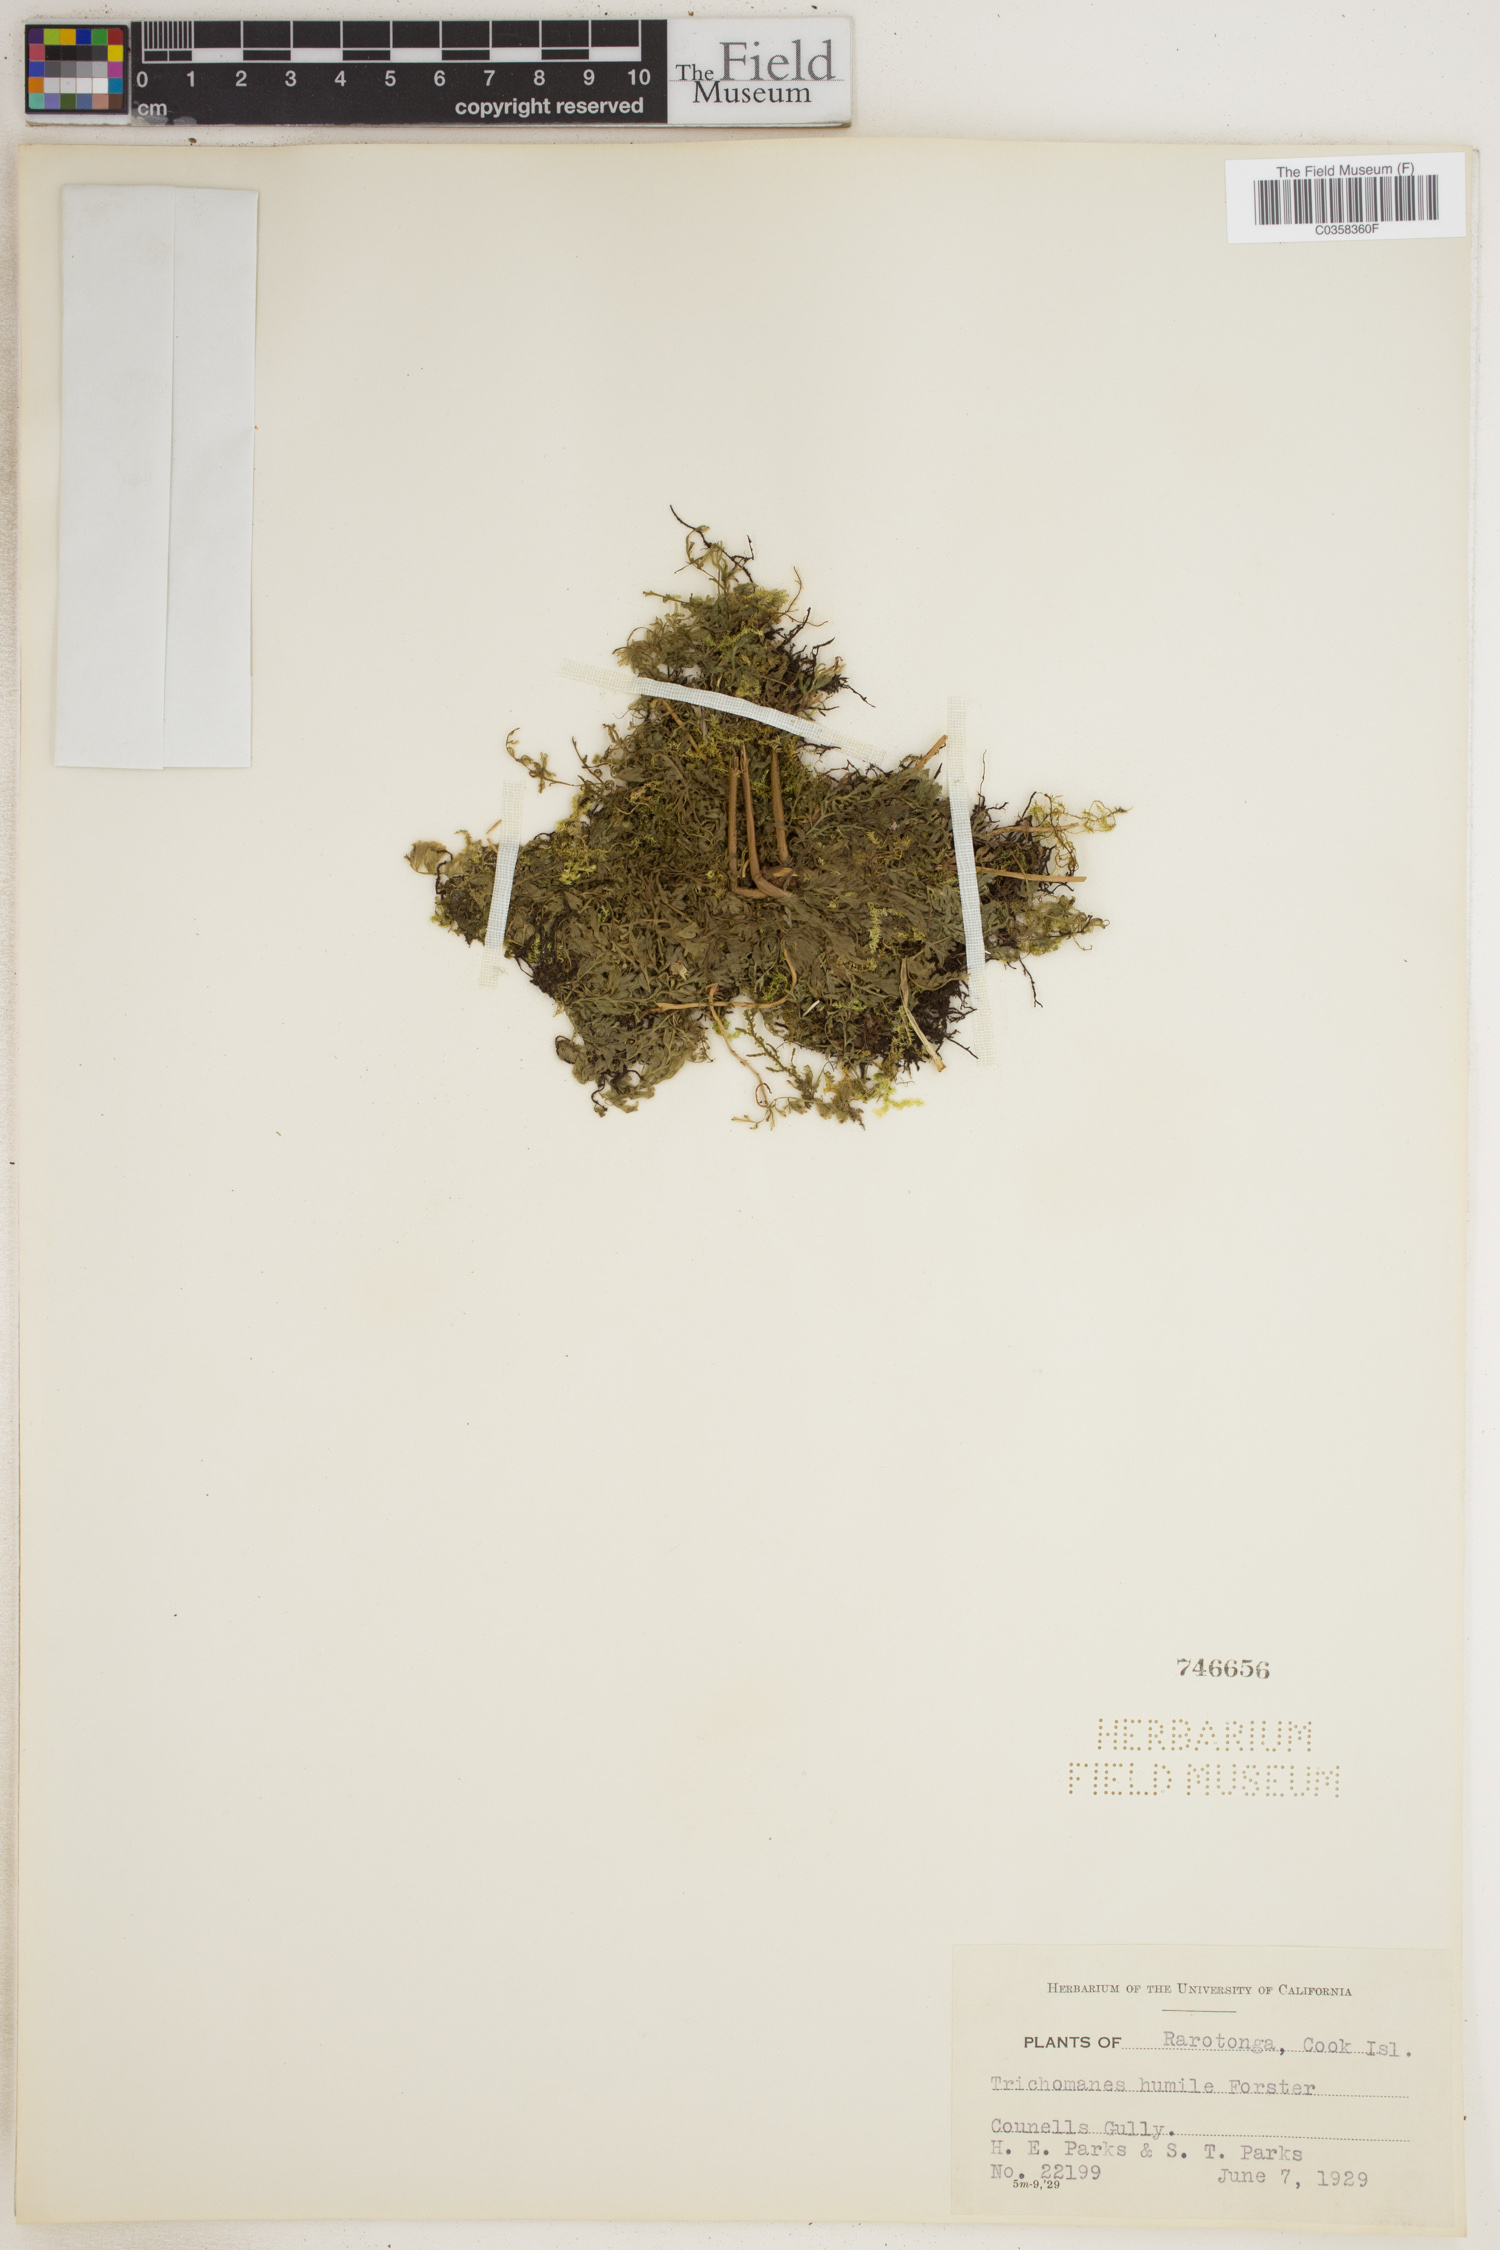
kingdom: Plantae
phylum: Tracheophyta
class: Polypodiopsida
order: Hymenophyllales
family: Hymenophyllaceae
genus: Crepidomanes
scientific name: Crepidomanes humile
